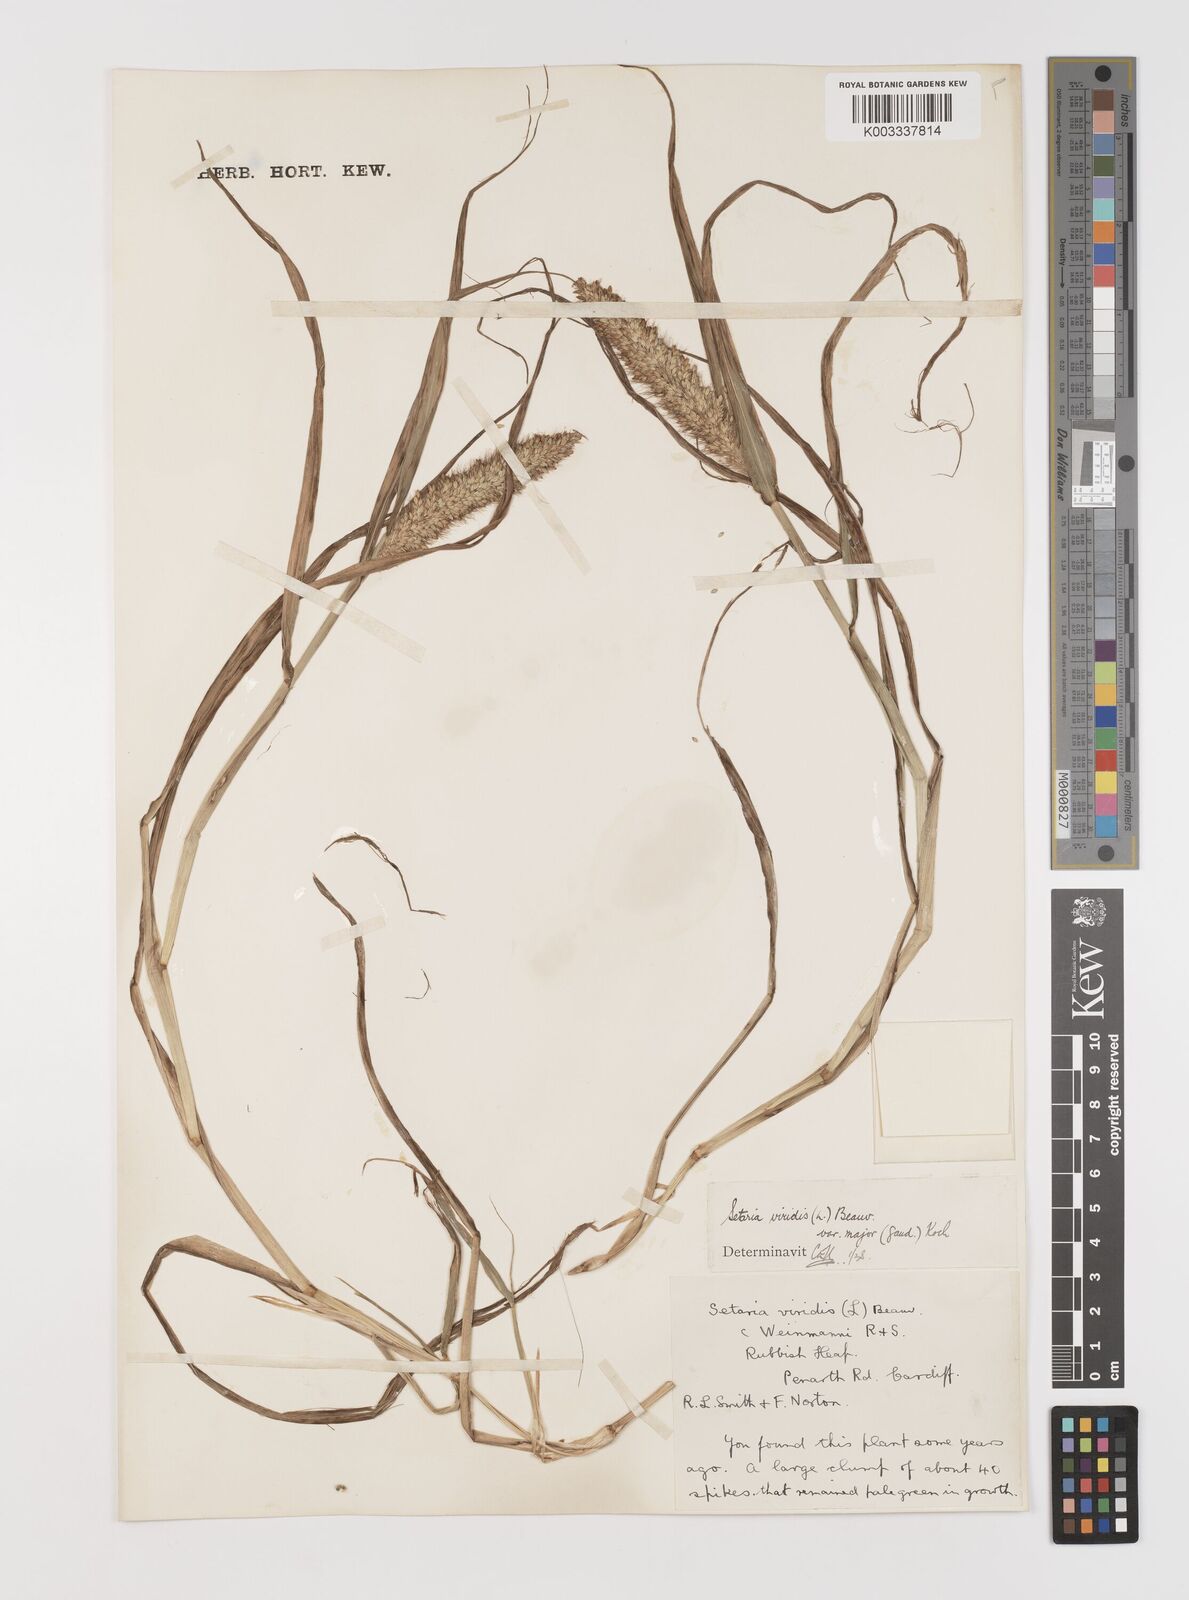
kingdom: Plantae
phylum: Tracheophyta
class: Liliopsida
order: Poales
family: Poaceae
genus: Setaria
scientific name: Setaria viridis
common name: Green bristlegrass
